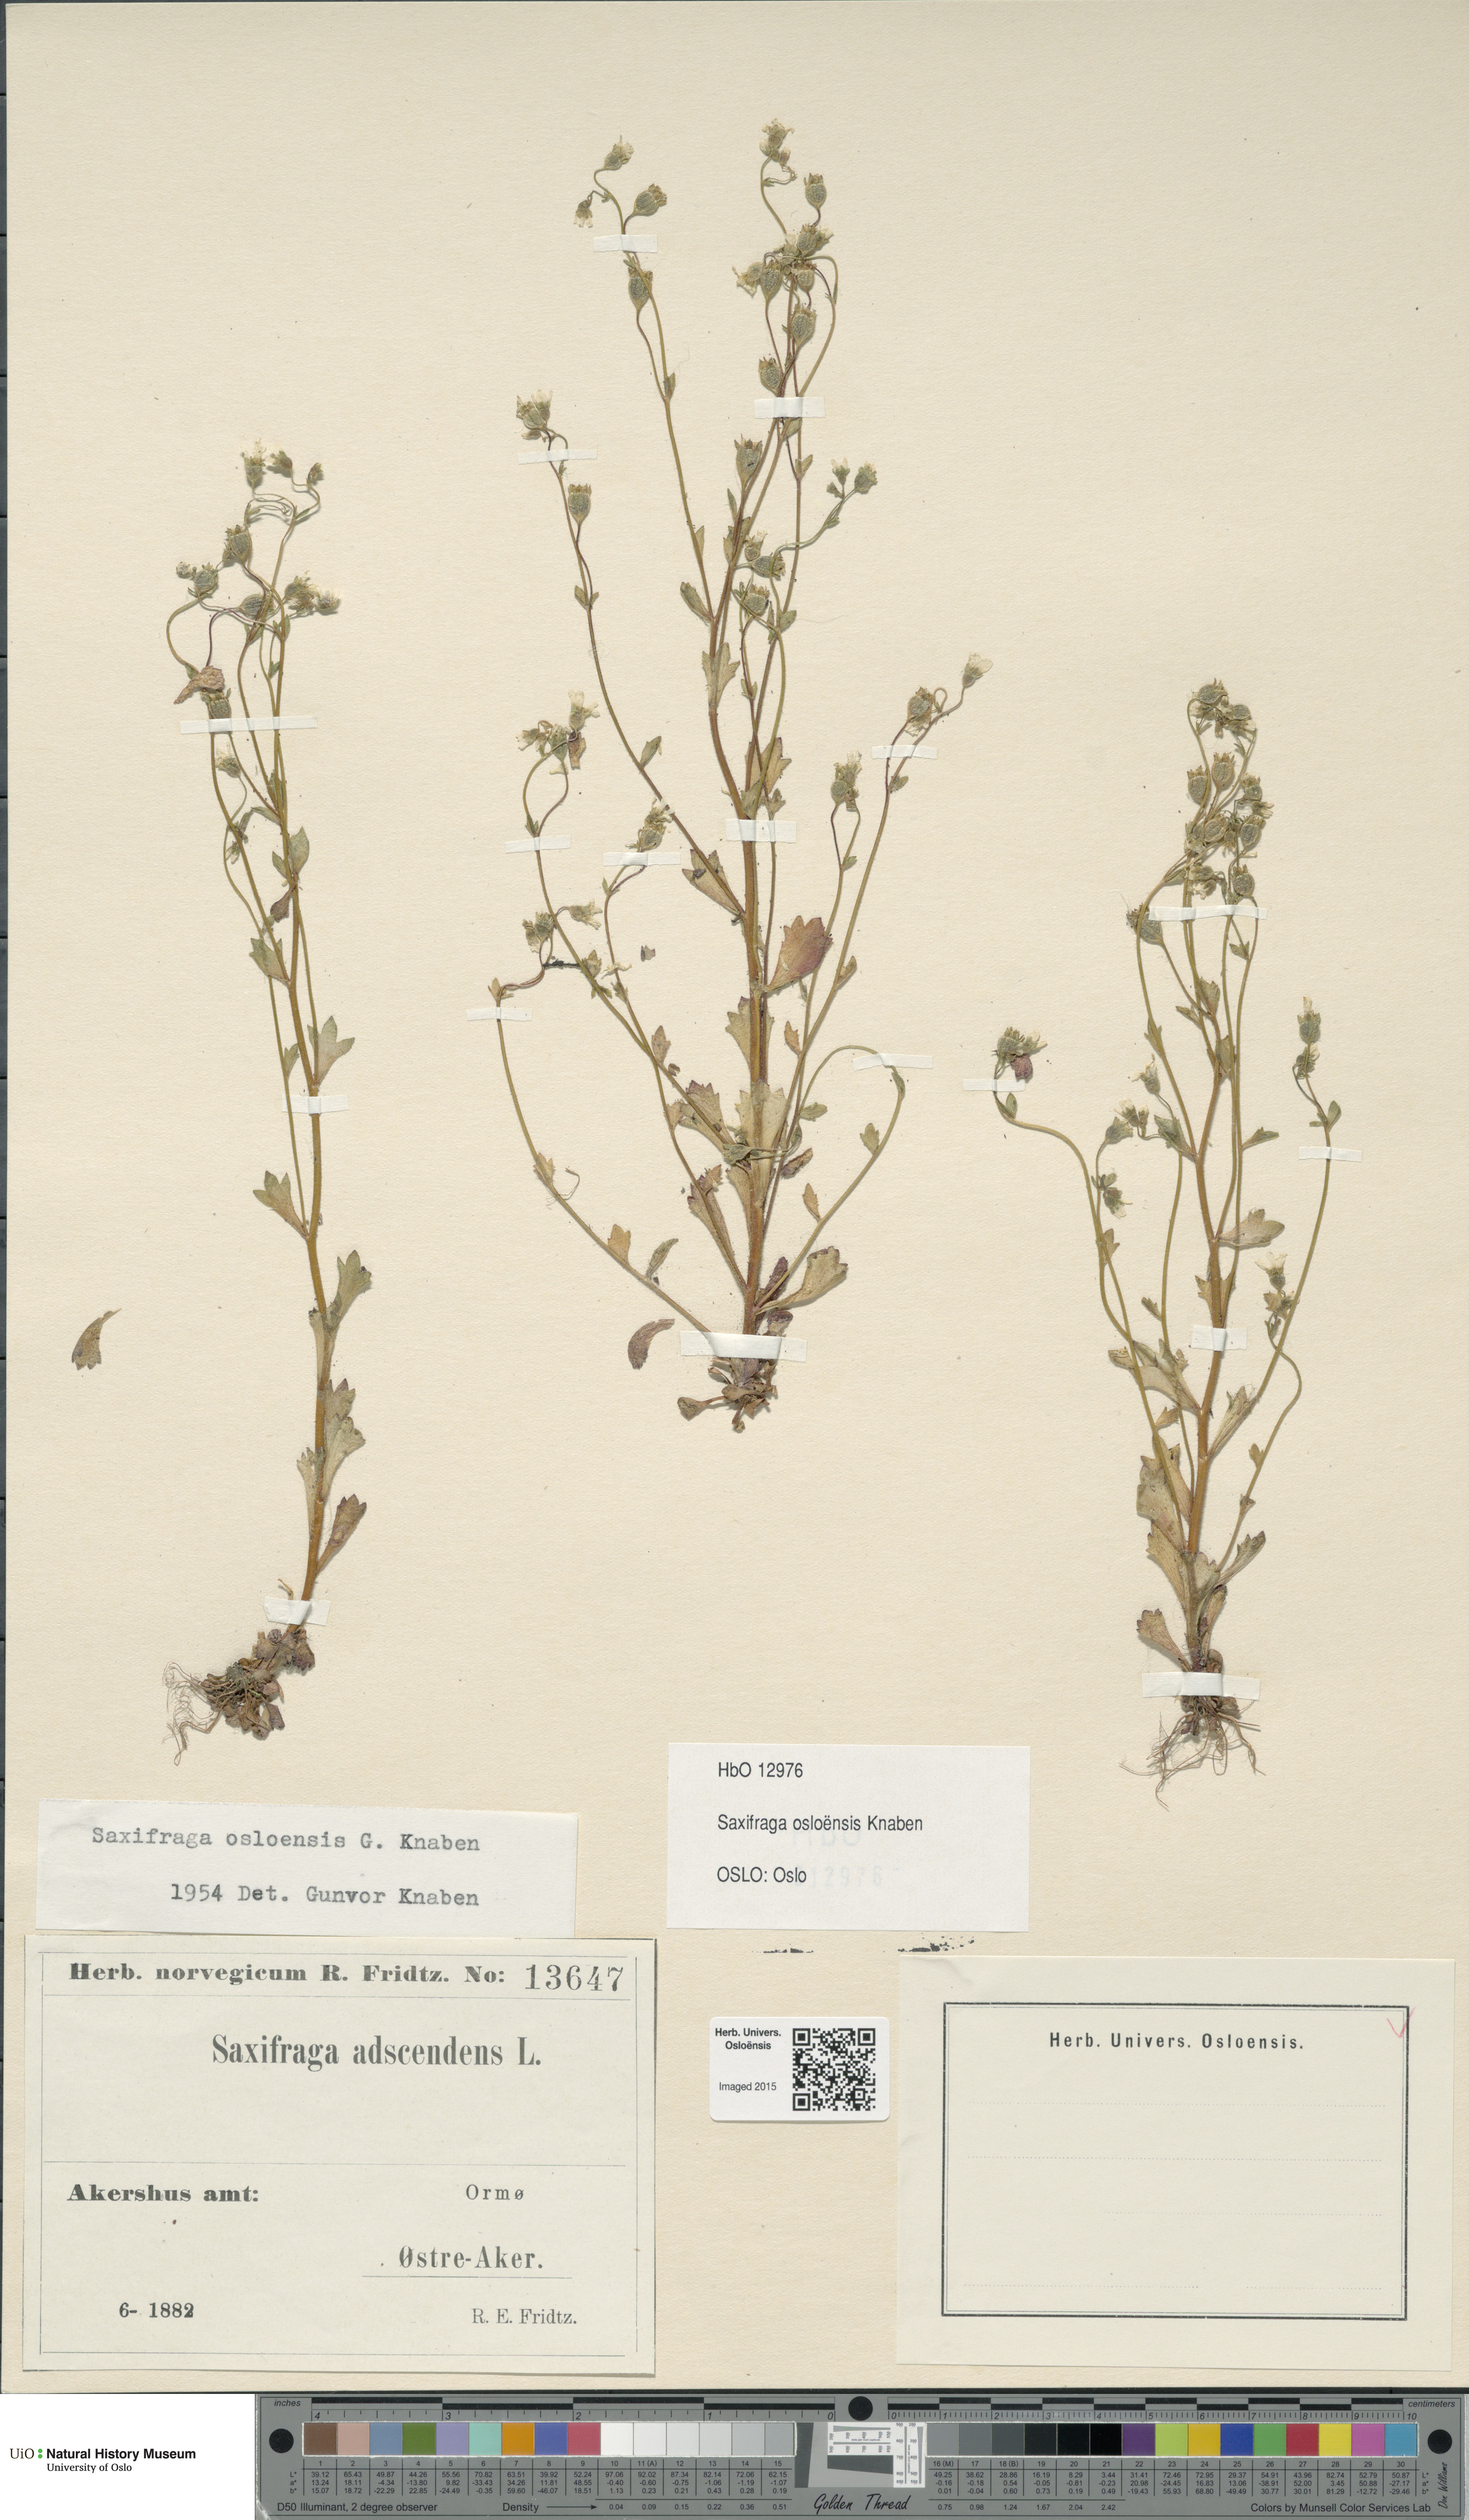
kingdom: Plantae
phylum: Tracheophyta
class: Magnoliopsida
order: Saxifragales
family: Saxifragaceae
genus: Saxifraga
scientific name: Saxifraga osloensis
